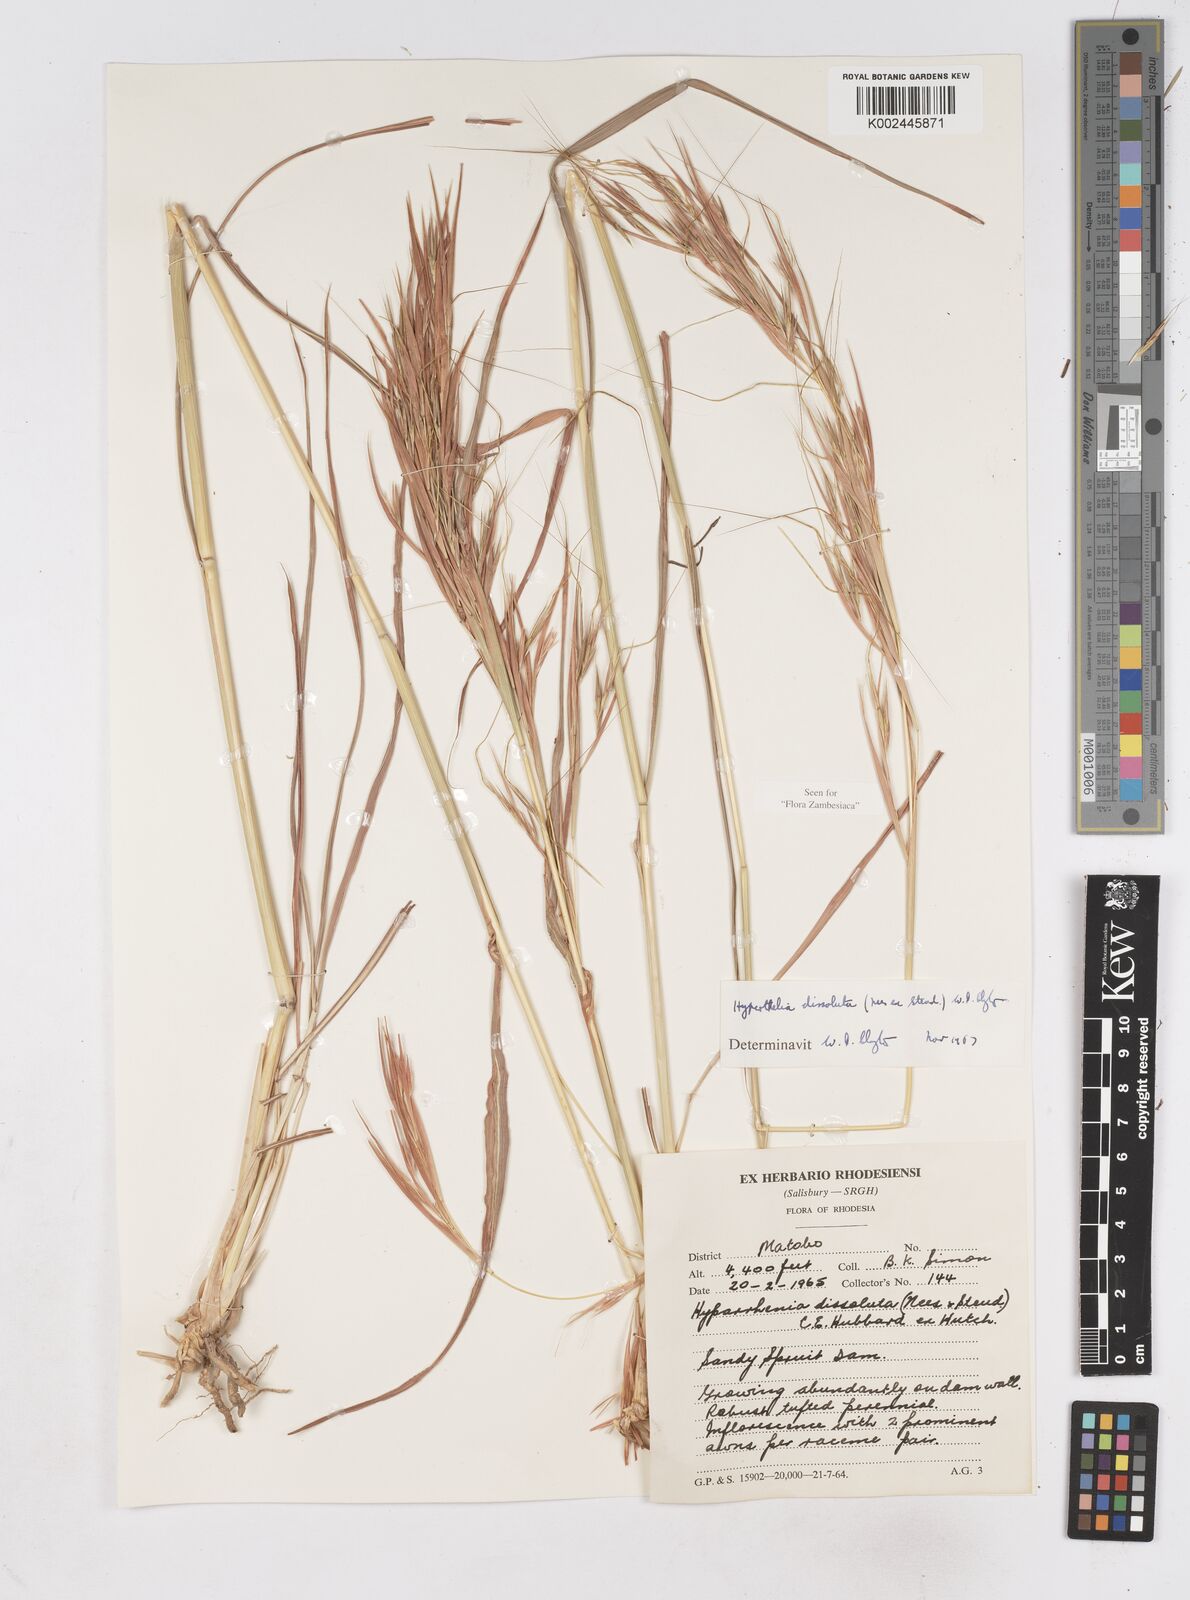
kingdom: Plantae
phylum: Tracheophyta
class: Liliopsida
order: Poales
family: Poaceae
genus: Hyperthelia
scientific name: Hyperthelia dissoluta
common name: Yellow thatching grass
